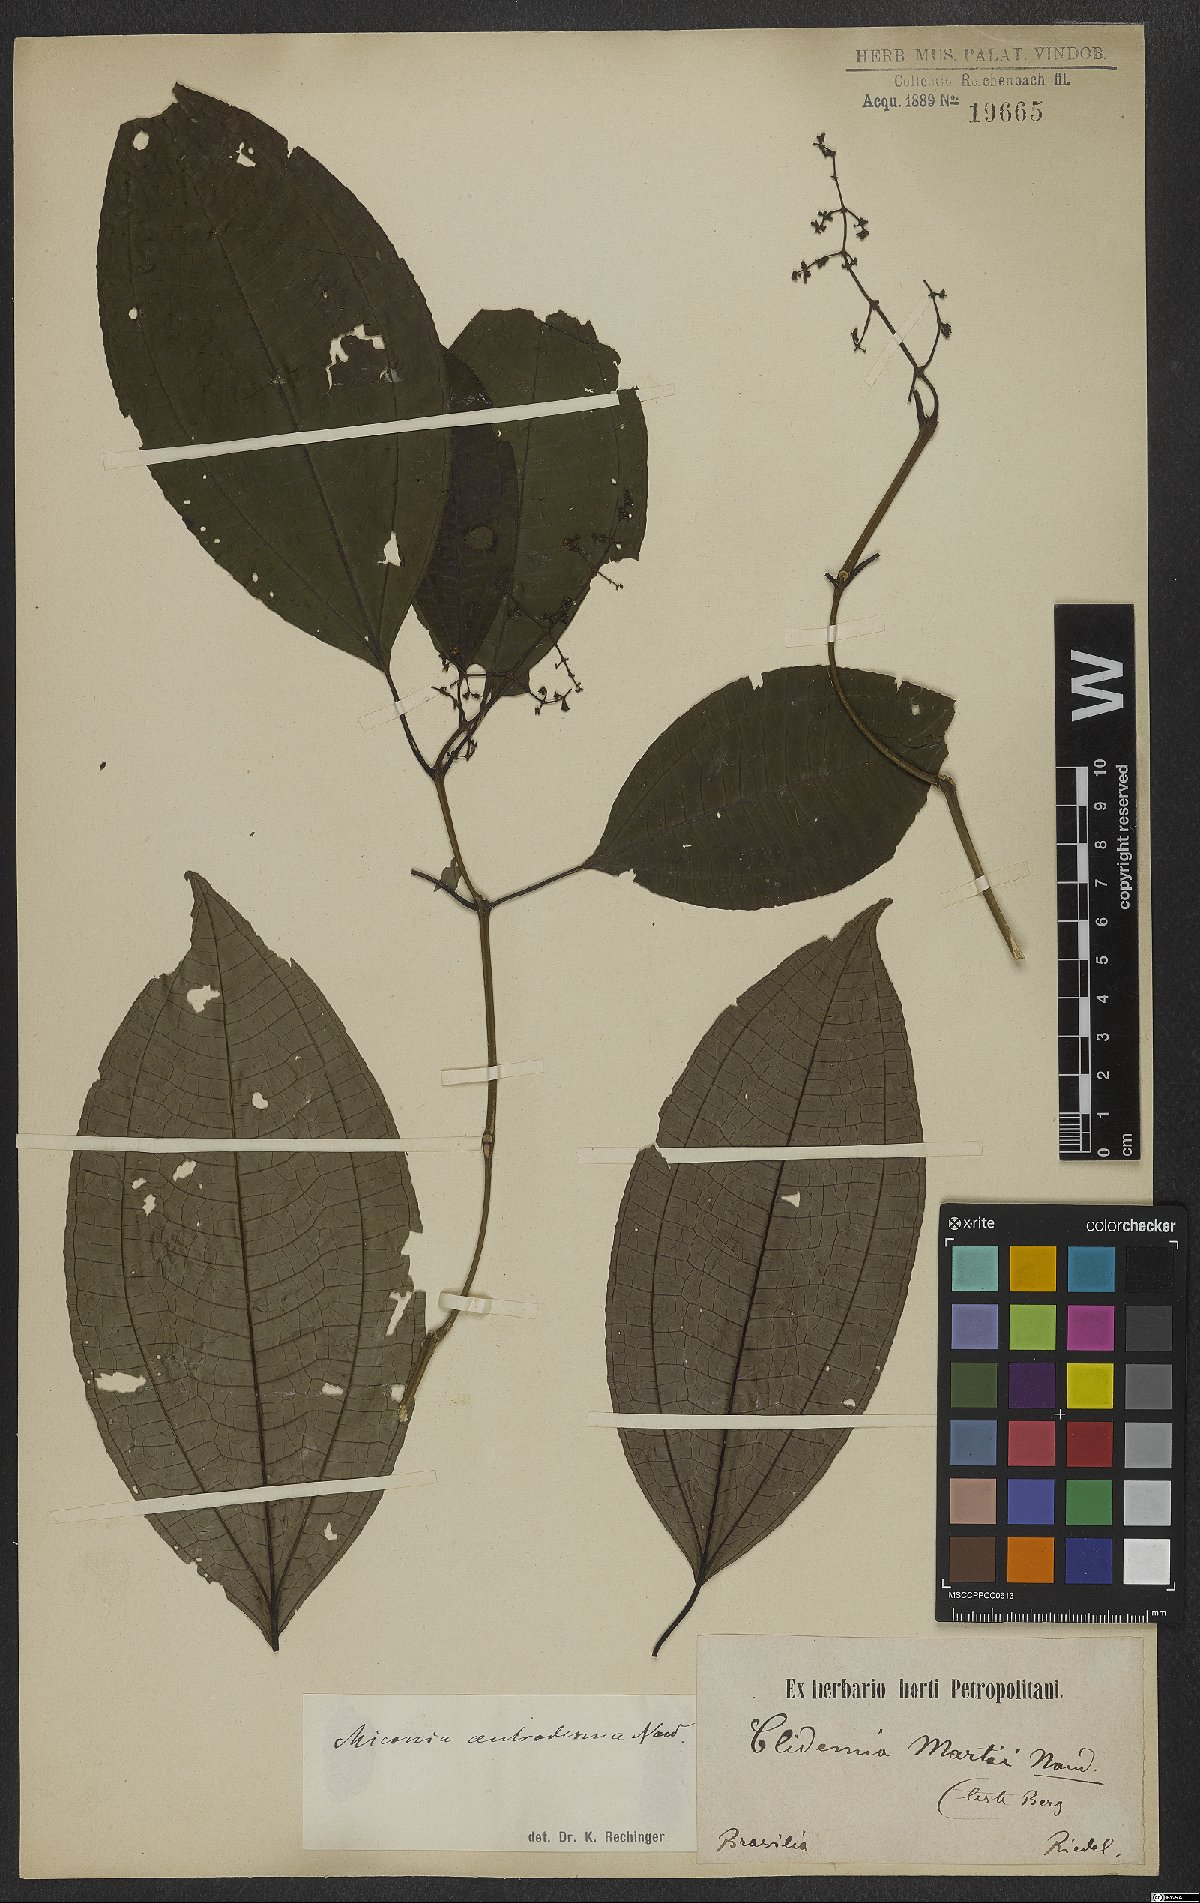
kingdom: Plantae
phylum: Tracheophyta
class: Magnoliopsida
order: Myrtales
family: Melastomataceae
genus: Miconia
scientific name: Miconia centrodesma
